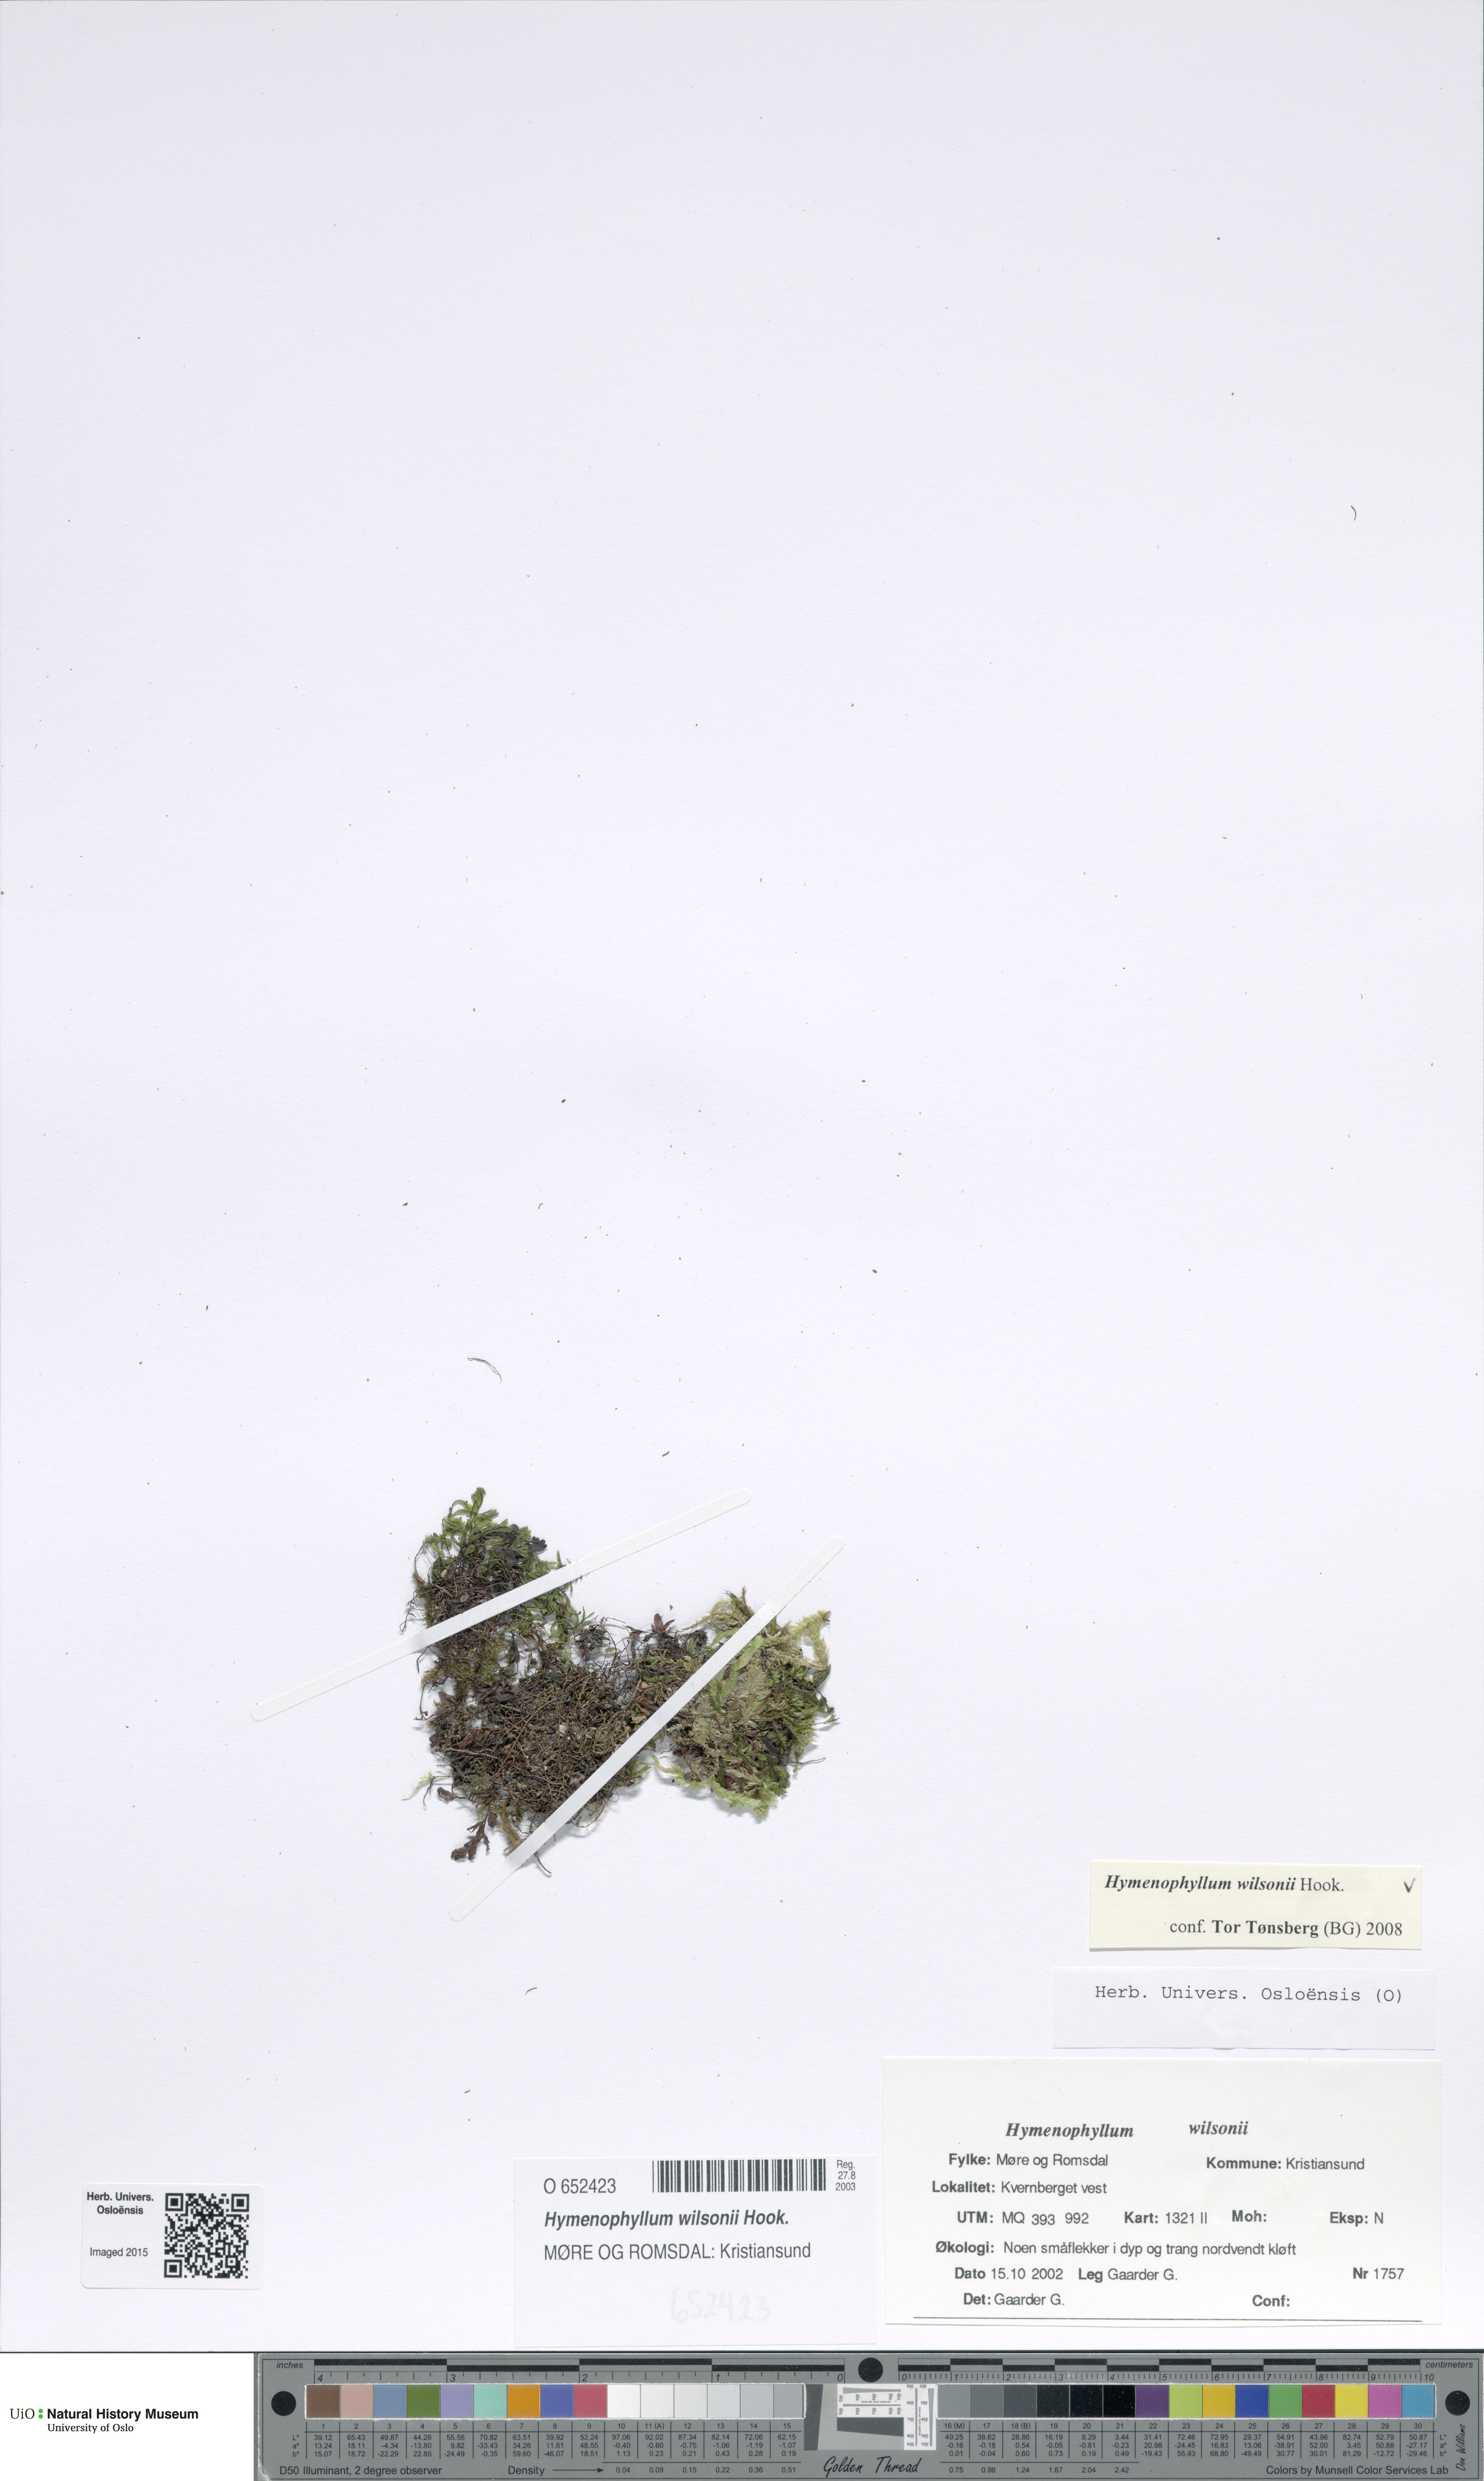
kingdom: Plantae
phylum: Tracheophyta
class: Polypodiopsida
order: Hymenophyllales
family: Hymenophyllaceae
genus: Hymenophyllum
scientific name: Hymenophyllum peltatum
